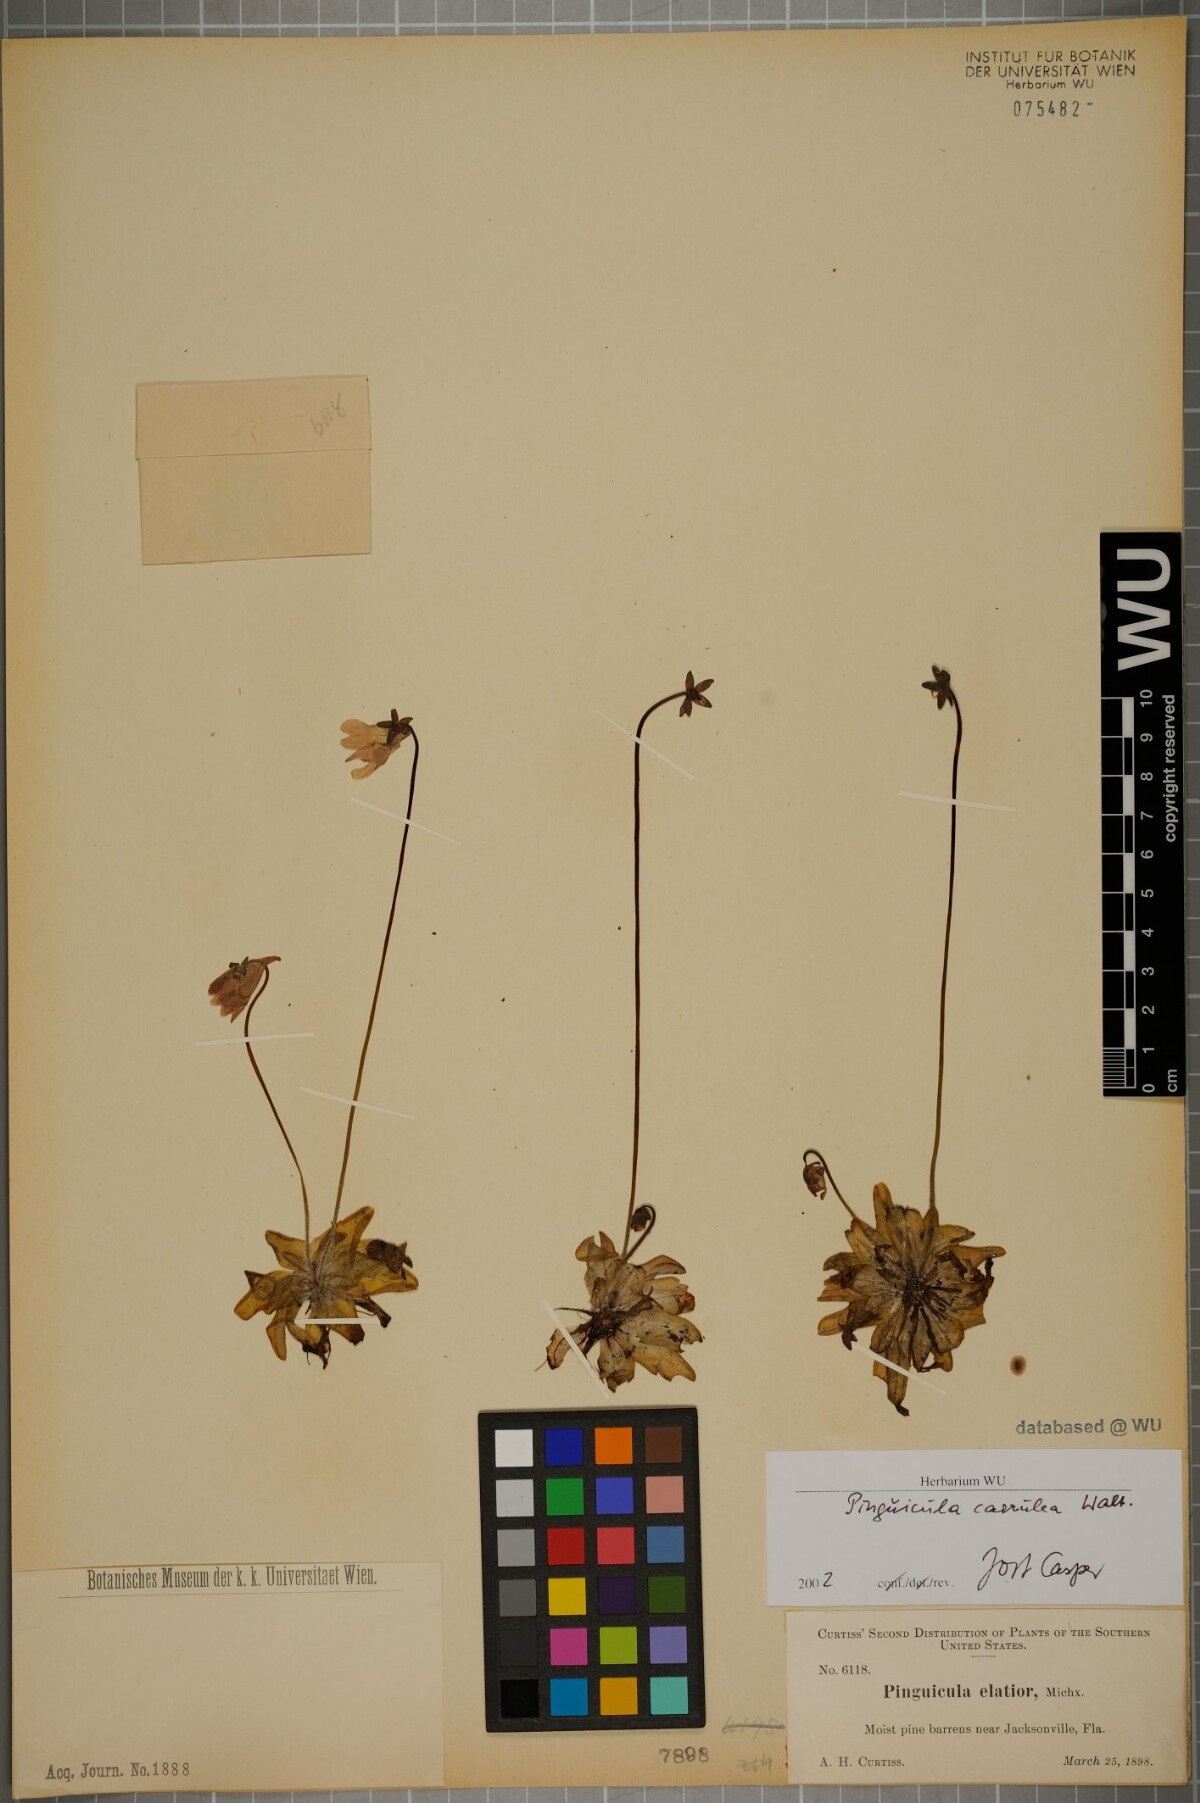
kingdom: Plantae
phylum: Tracheophyta
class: Magnoliopsida
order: Lamiales
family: Lentibulariaceae
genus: Pinguicula
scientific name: Pinguicula caerulea
